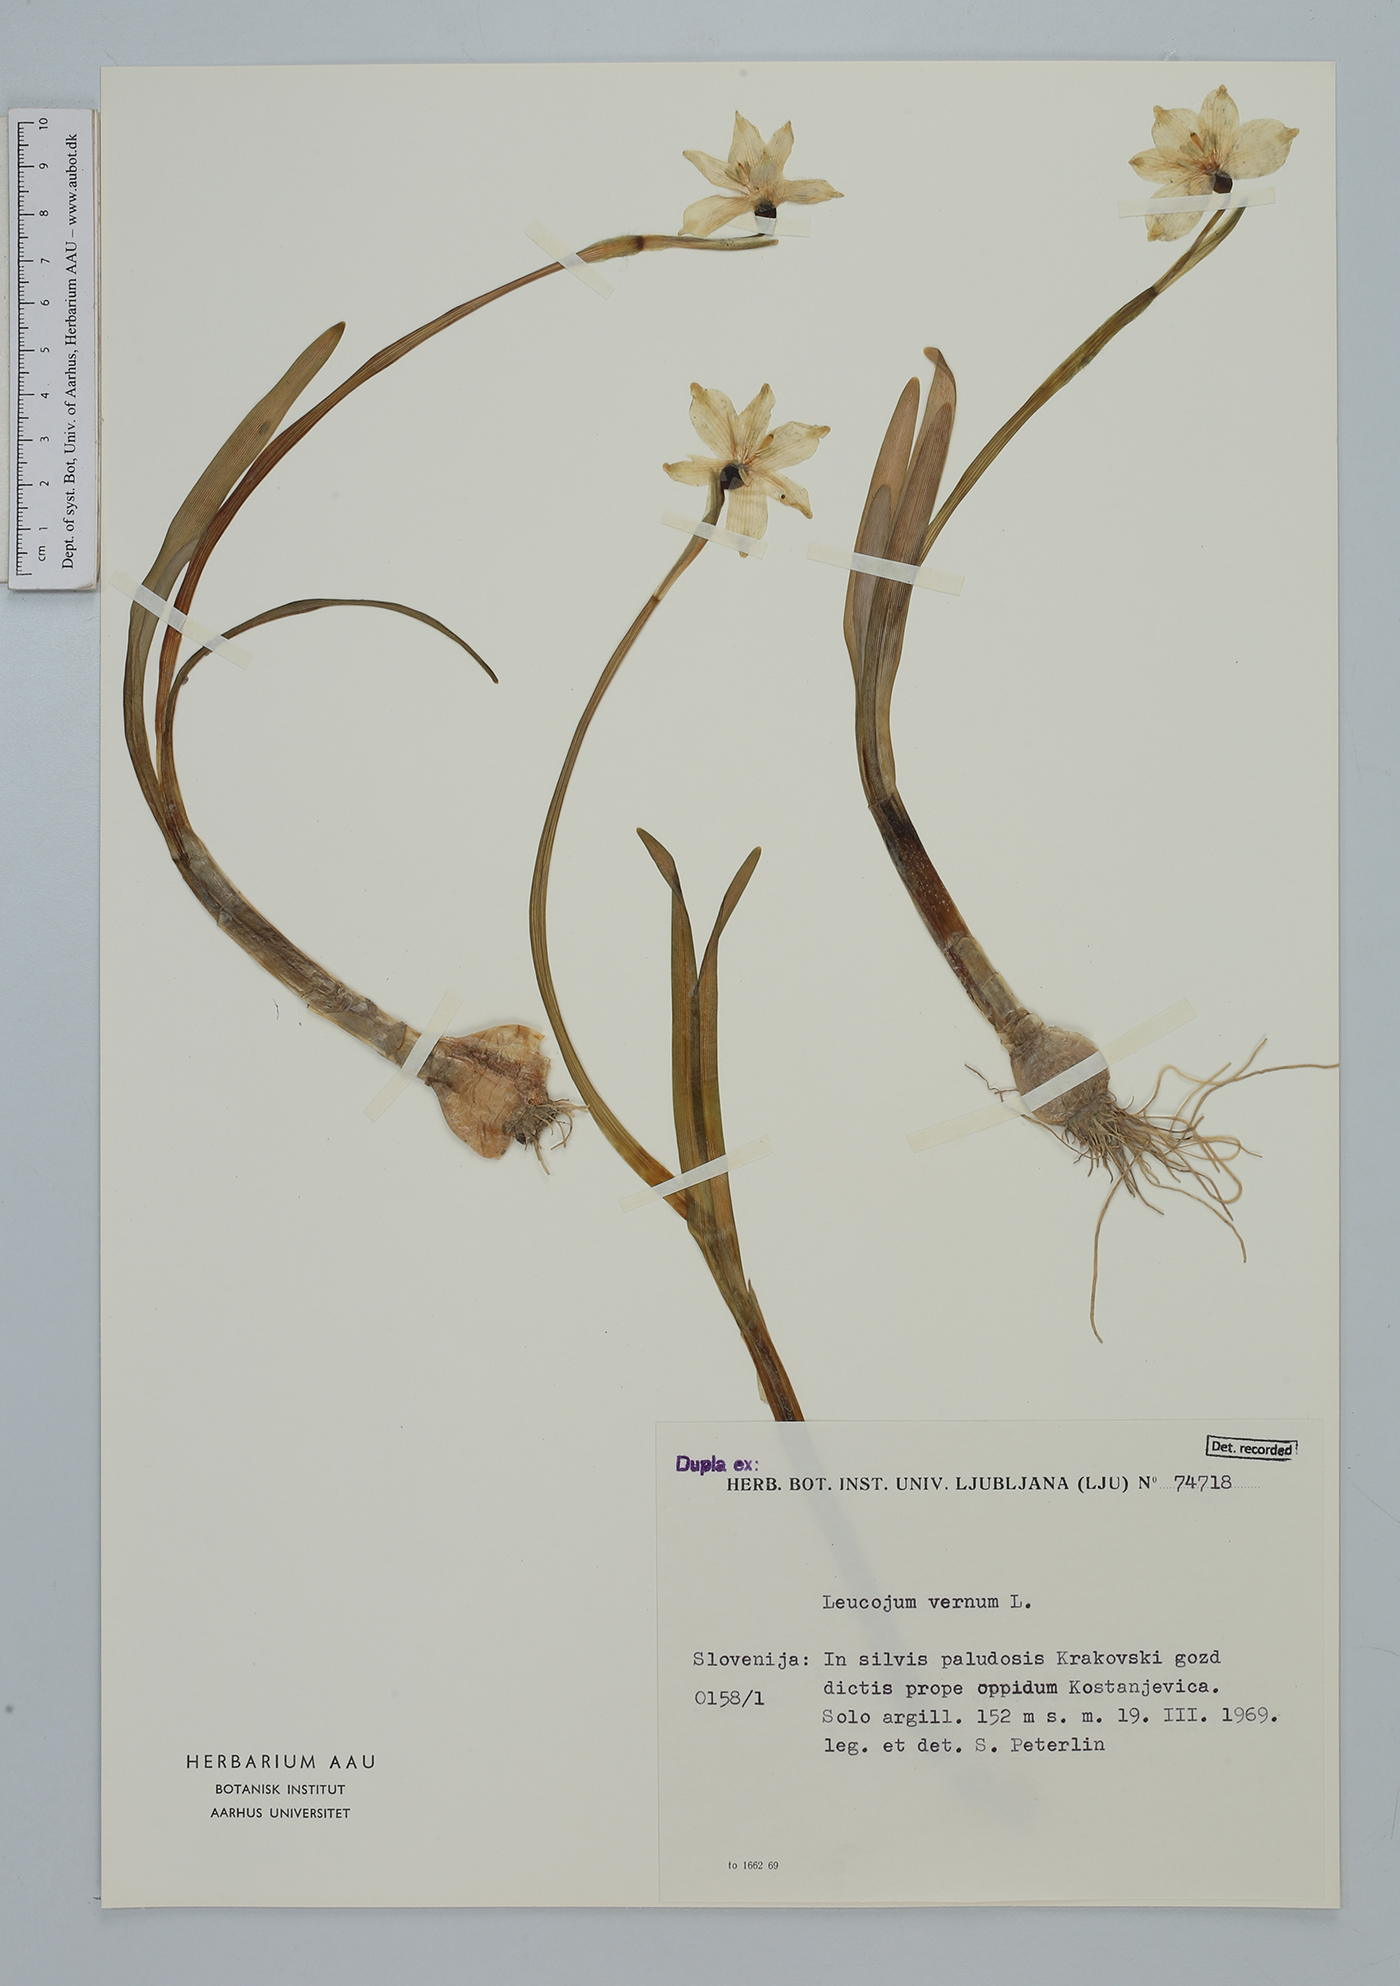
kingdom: Plantae
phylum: Tracheophyta
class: Liliopsida
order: Asparagales
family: Amaryllidaceae
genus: Leucojum
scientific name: Leucojum vernum
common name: Spring snowflake
